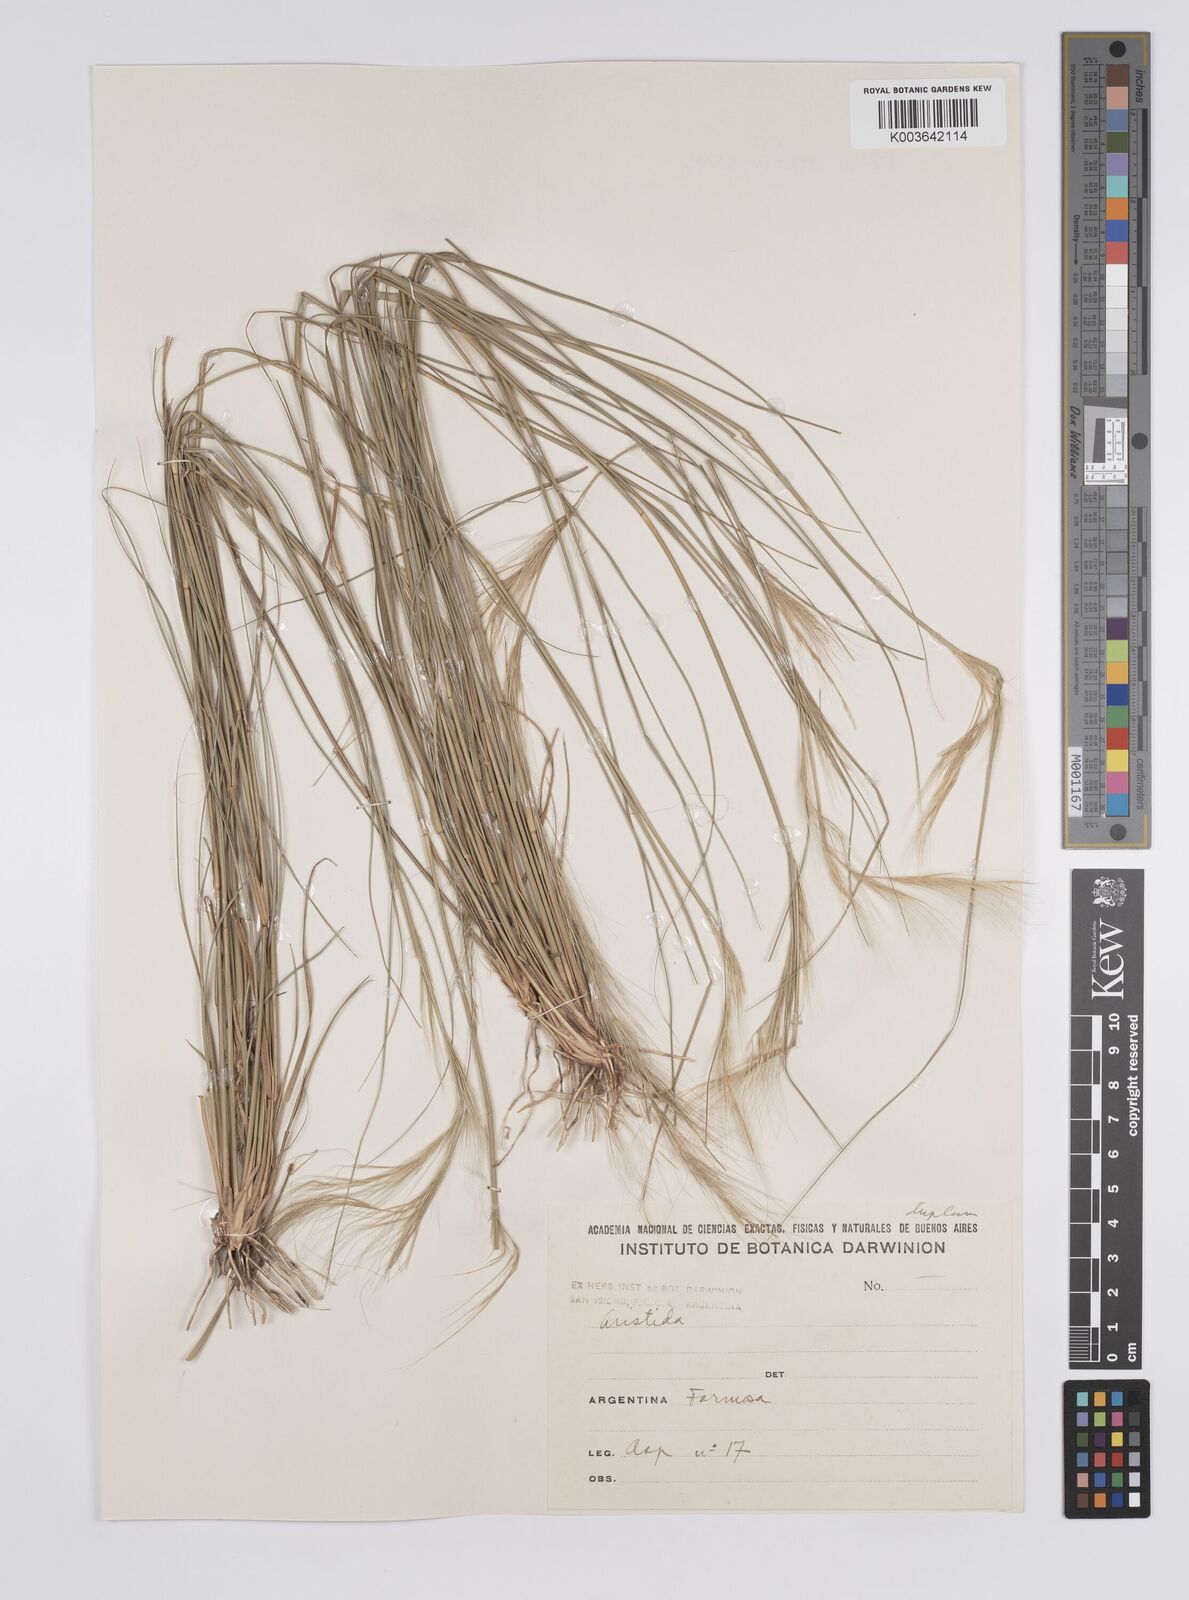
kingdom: Plantae
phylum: Tracheophyta
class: Liliopsida
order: Poales
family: Poaceae
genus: Aristida
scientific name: Aristida adscensionis
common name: Sixweeks threeawn
